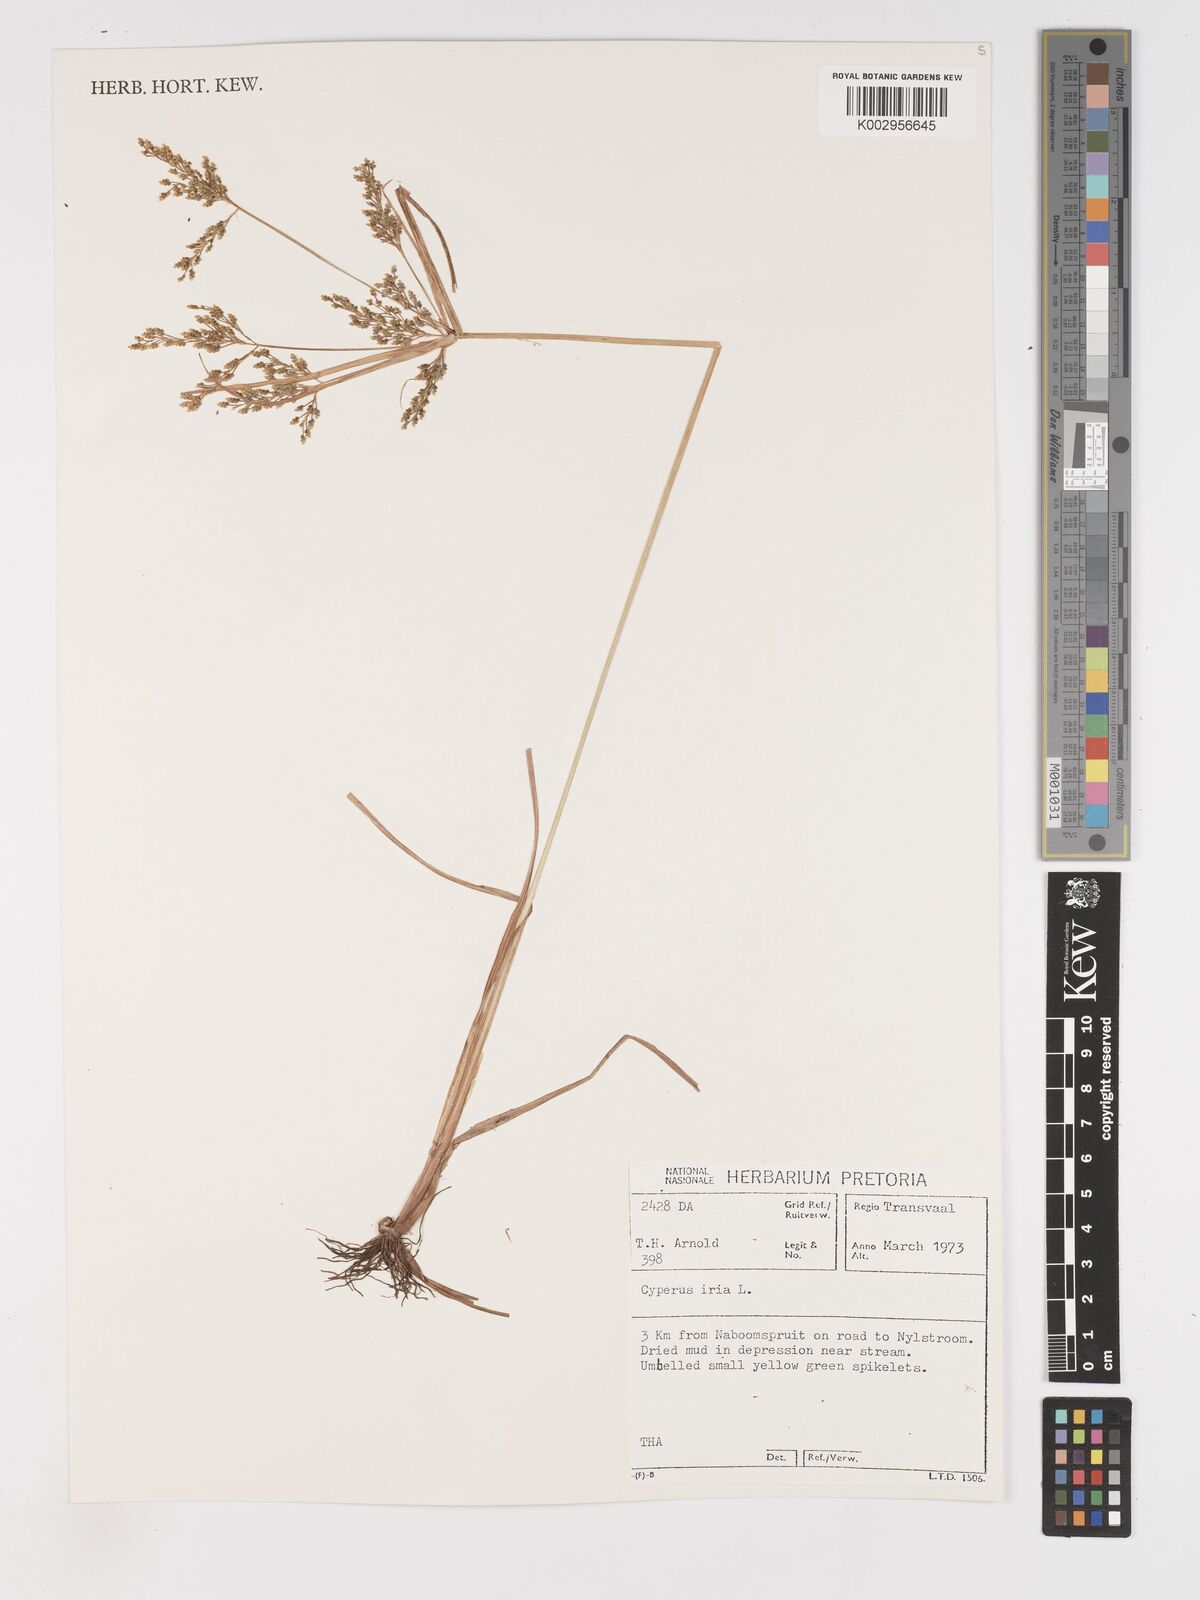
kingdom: Plantae
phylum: Tracheophyta
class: Liliopsida
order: Poales
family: Cyperaceae
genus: Cyperus
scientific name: Cyperus iria
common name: Ricefield flatsedge
